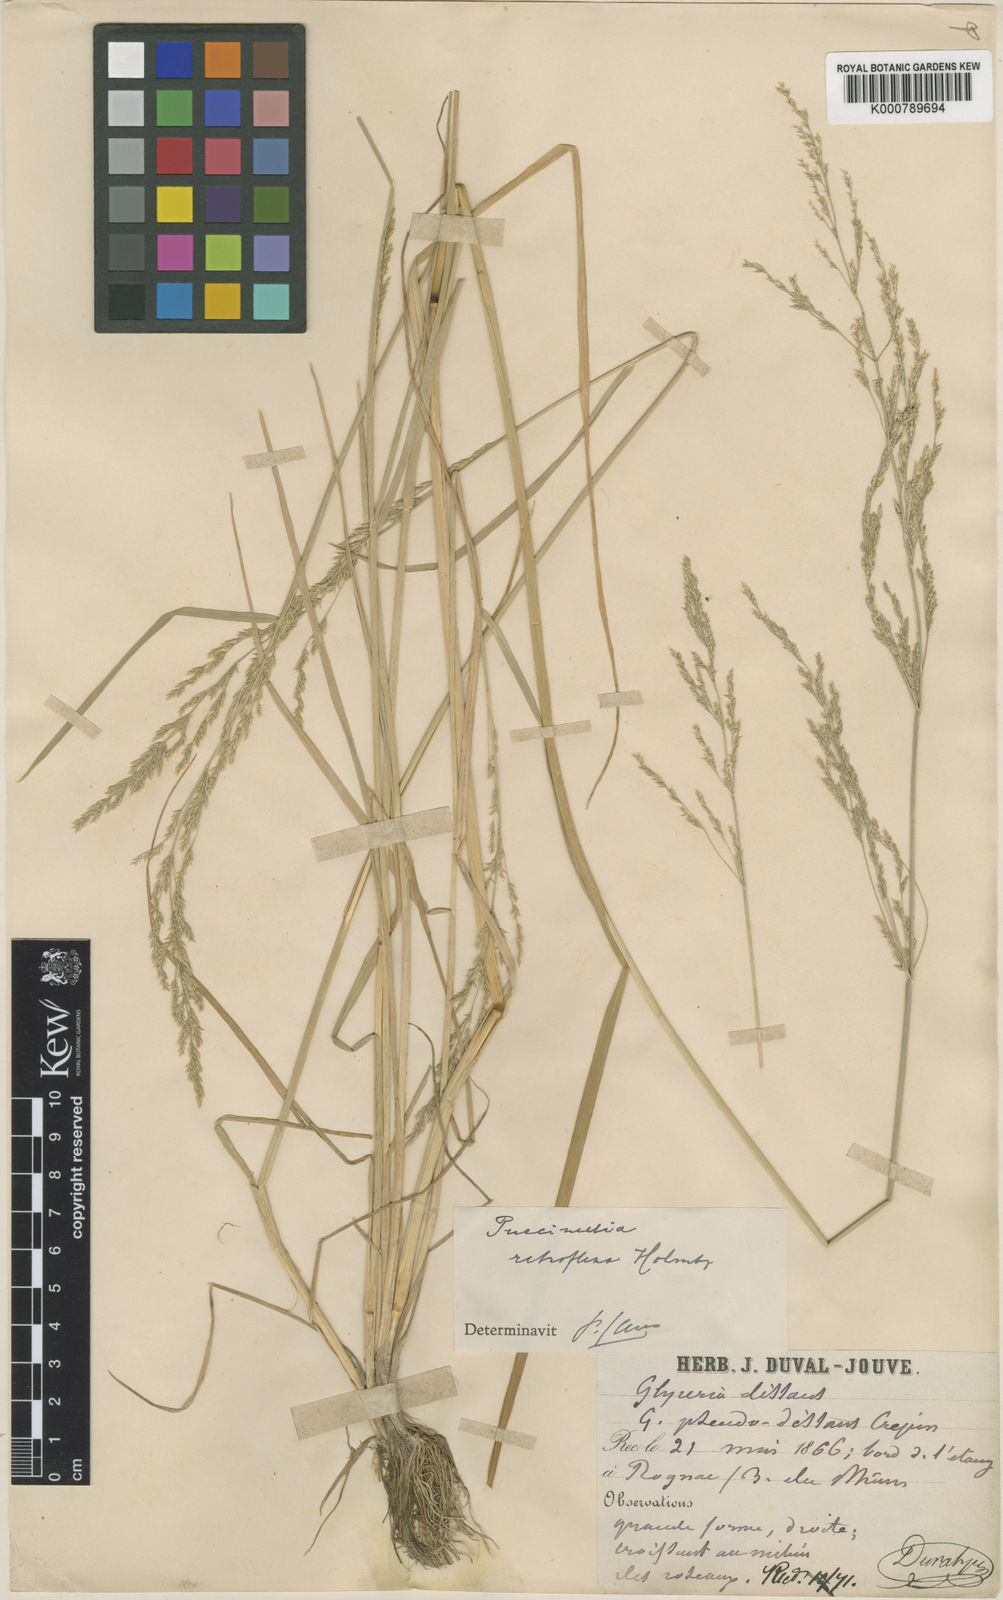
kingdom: Plantae
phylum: Tracheophyta
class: Liliopsida
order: Poales
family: Poaceae
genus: Puccinellia
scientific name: Puccinellia fasciculata
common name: Borrer's saltmarsh-grass
